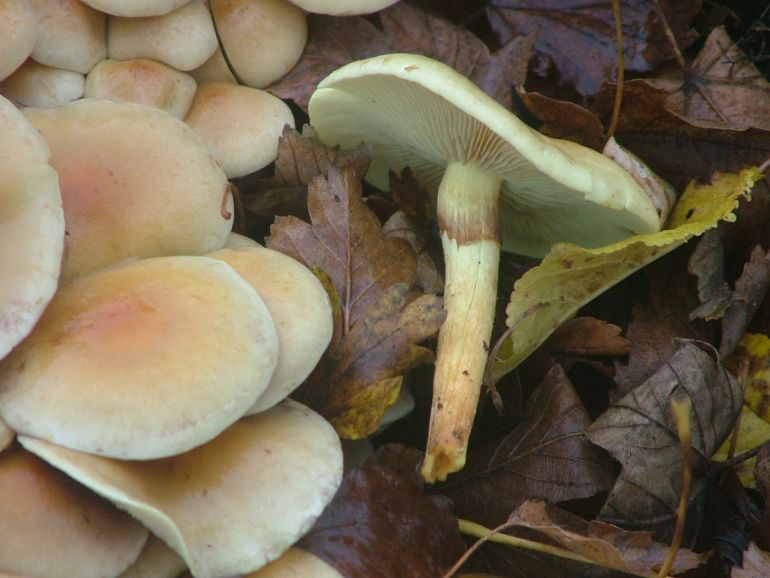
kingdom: Fungi
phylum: Basidiomycota
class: Agaricomycetes
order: Agaricales
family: Strophariaceae
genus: Hypholoma
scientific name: Hypholoma fasciculare
